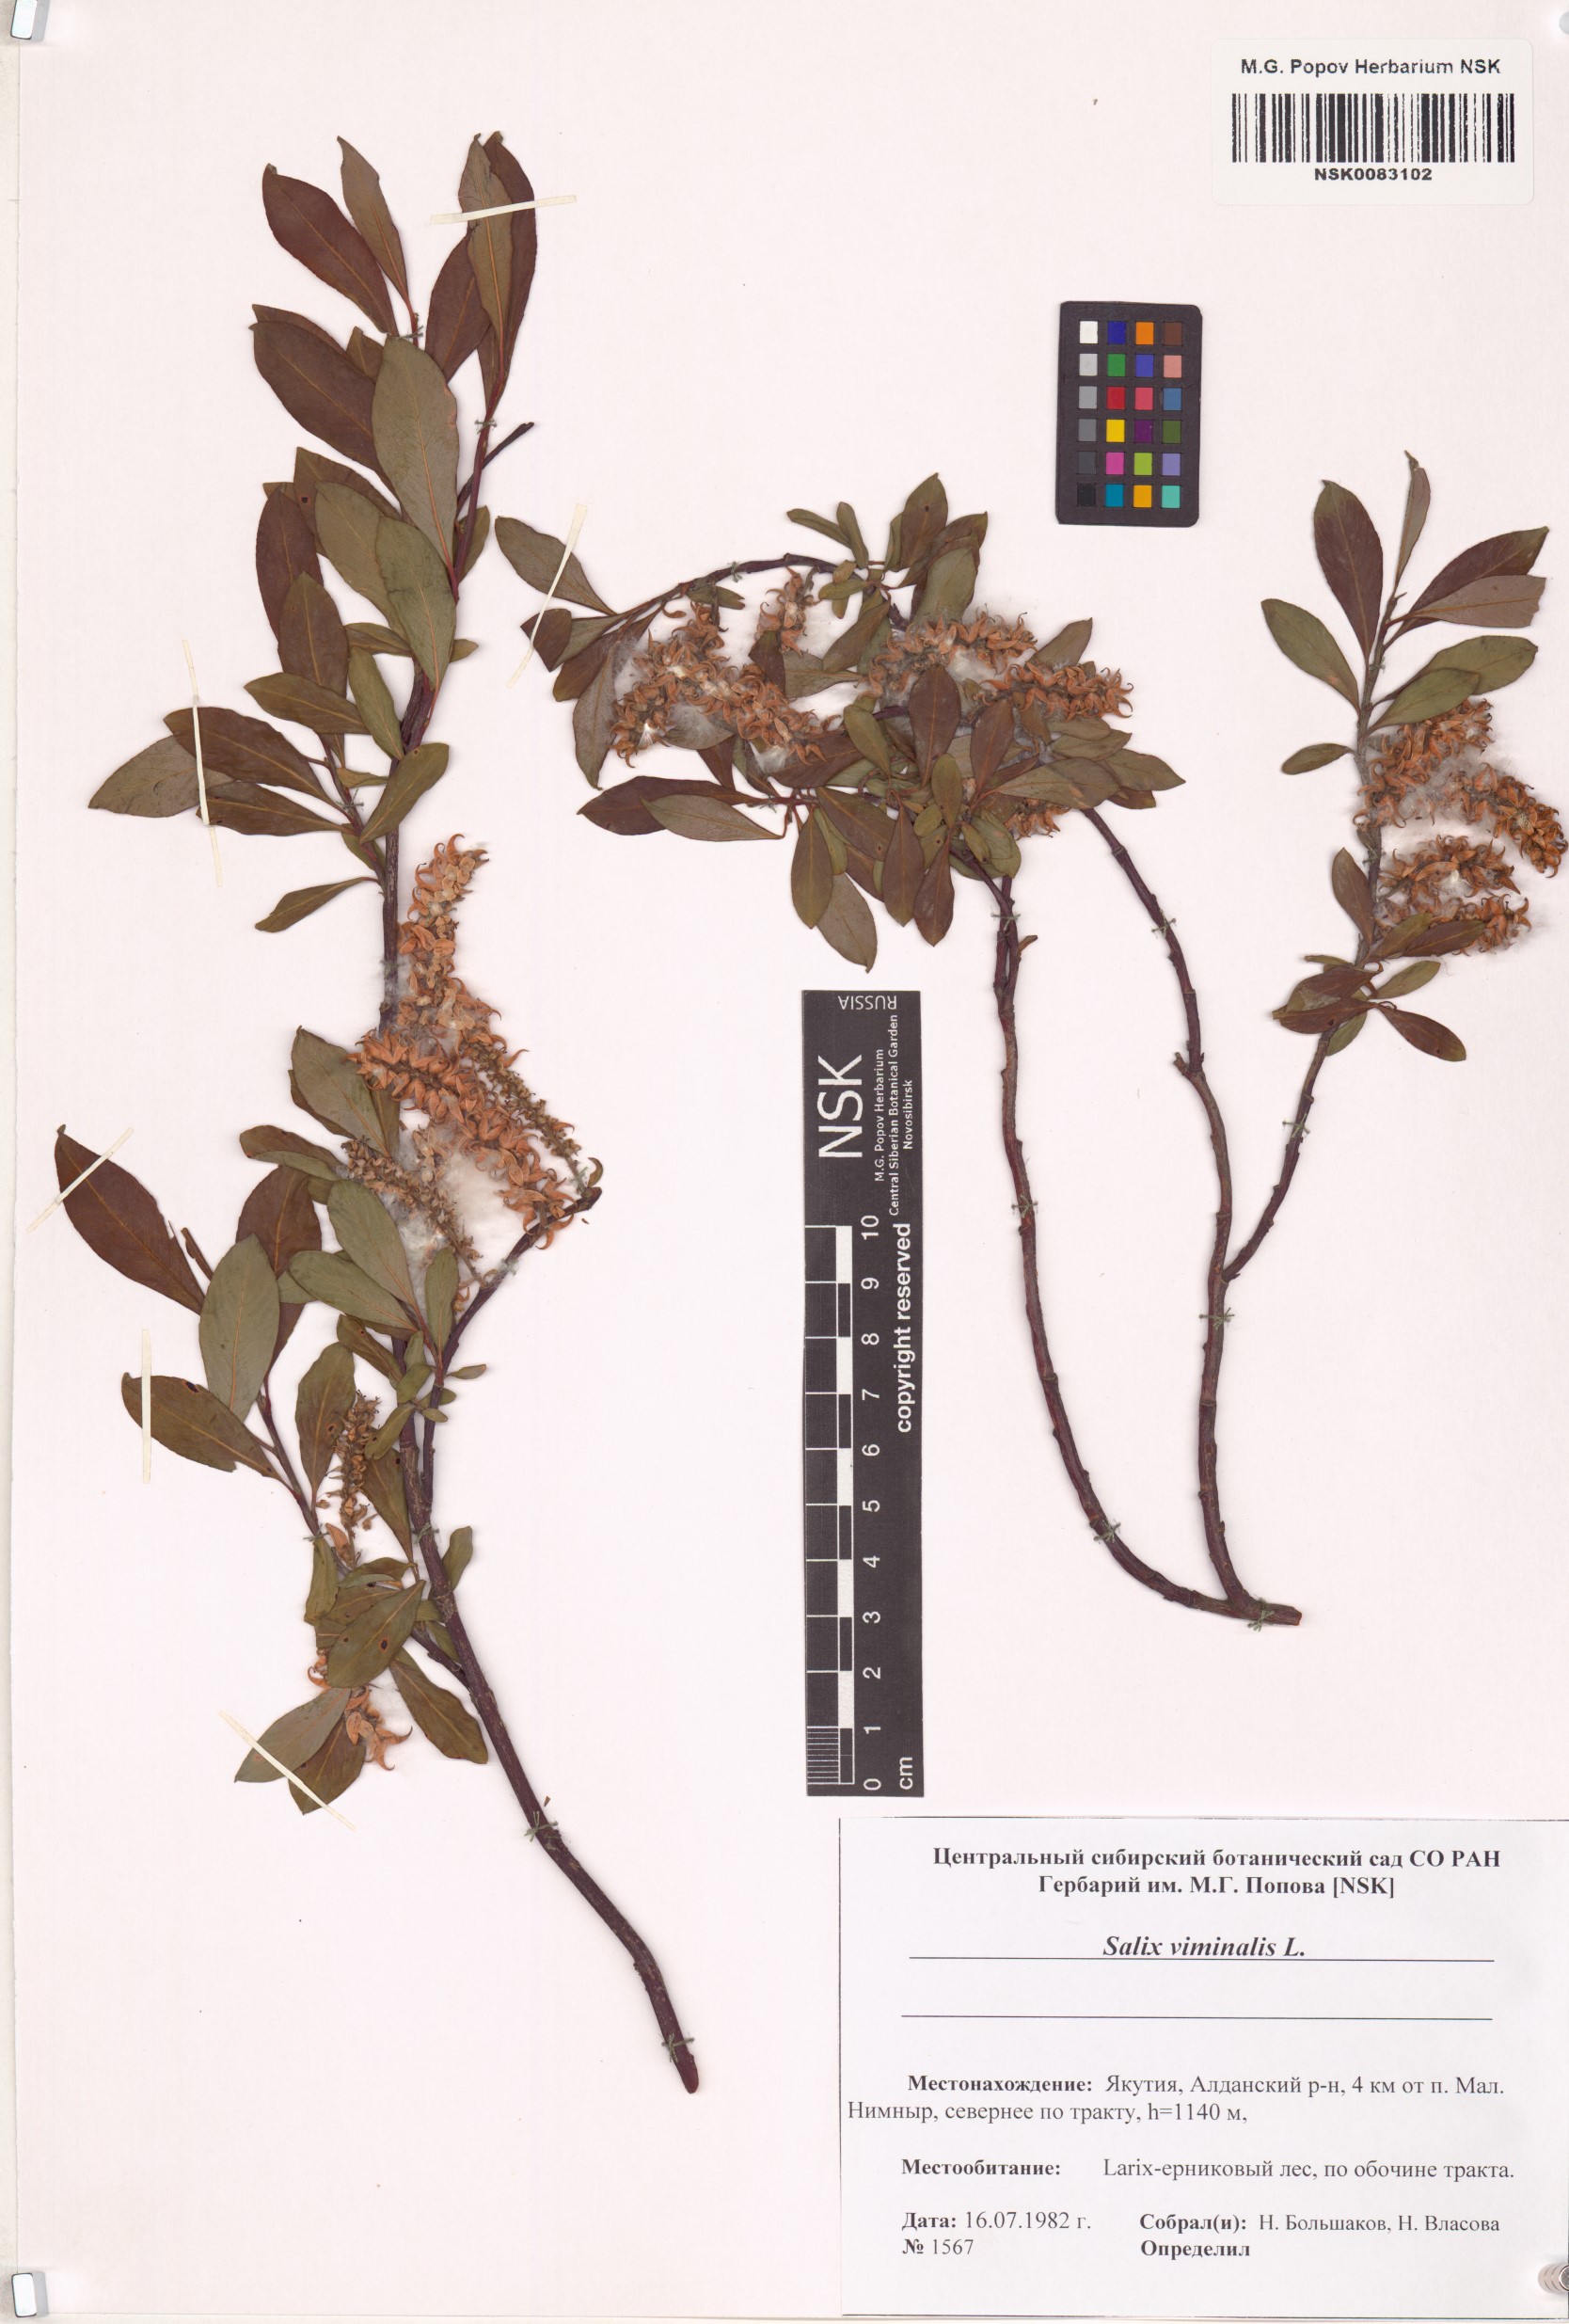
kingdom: Plantae
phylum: Tracheophyta
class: Magnoliopsida
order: Malpighiales
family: Salicaceae
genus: Salix
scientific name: Salix viminalis
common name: Osier
